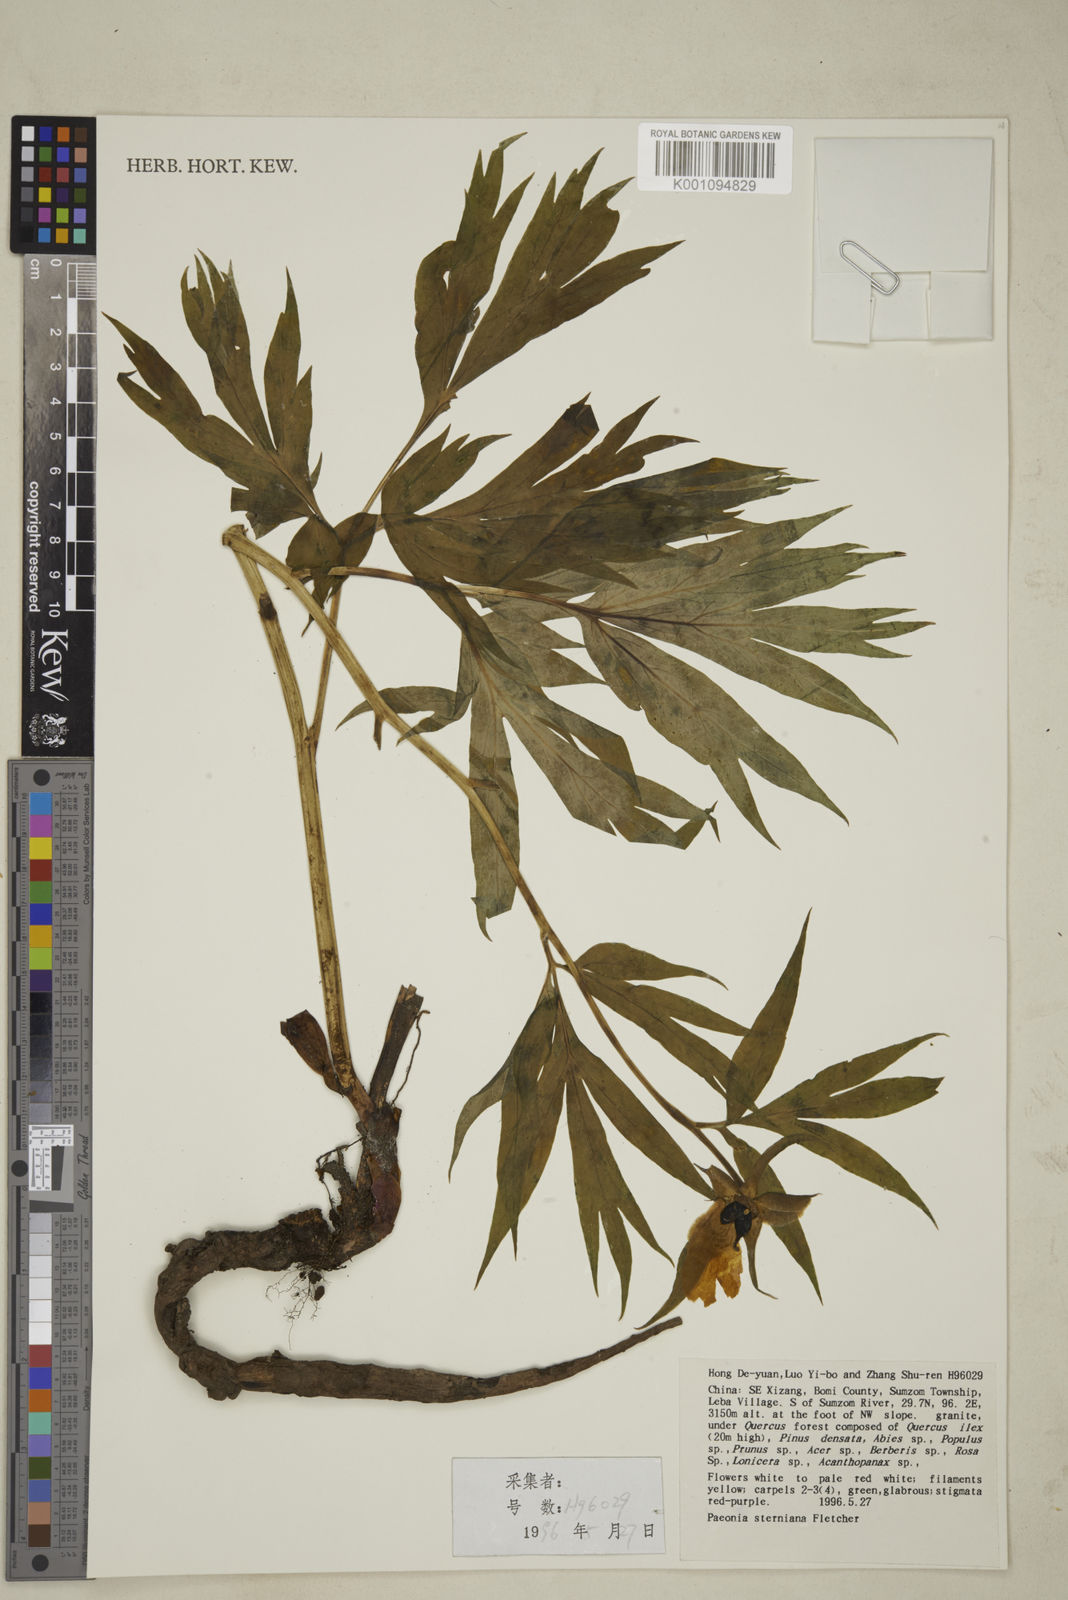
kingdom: Plantae
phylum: Tracheophyta
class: Magnoliopsida
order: Saxifragales
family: Paeoniaceae
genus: Paeonia
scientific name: Paeonia emodi
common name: Himalayan peony
